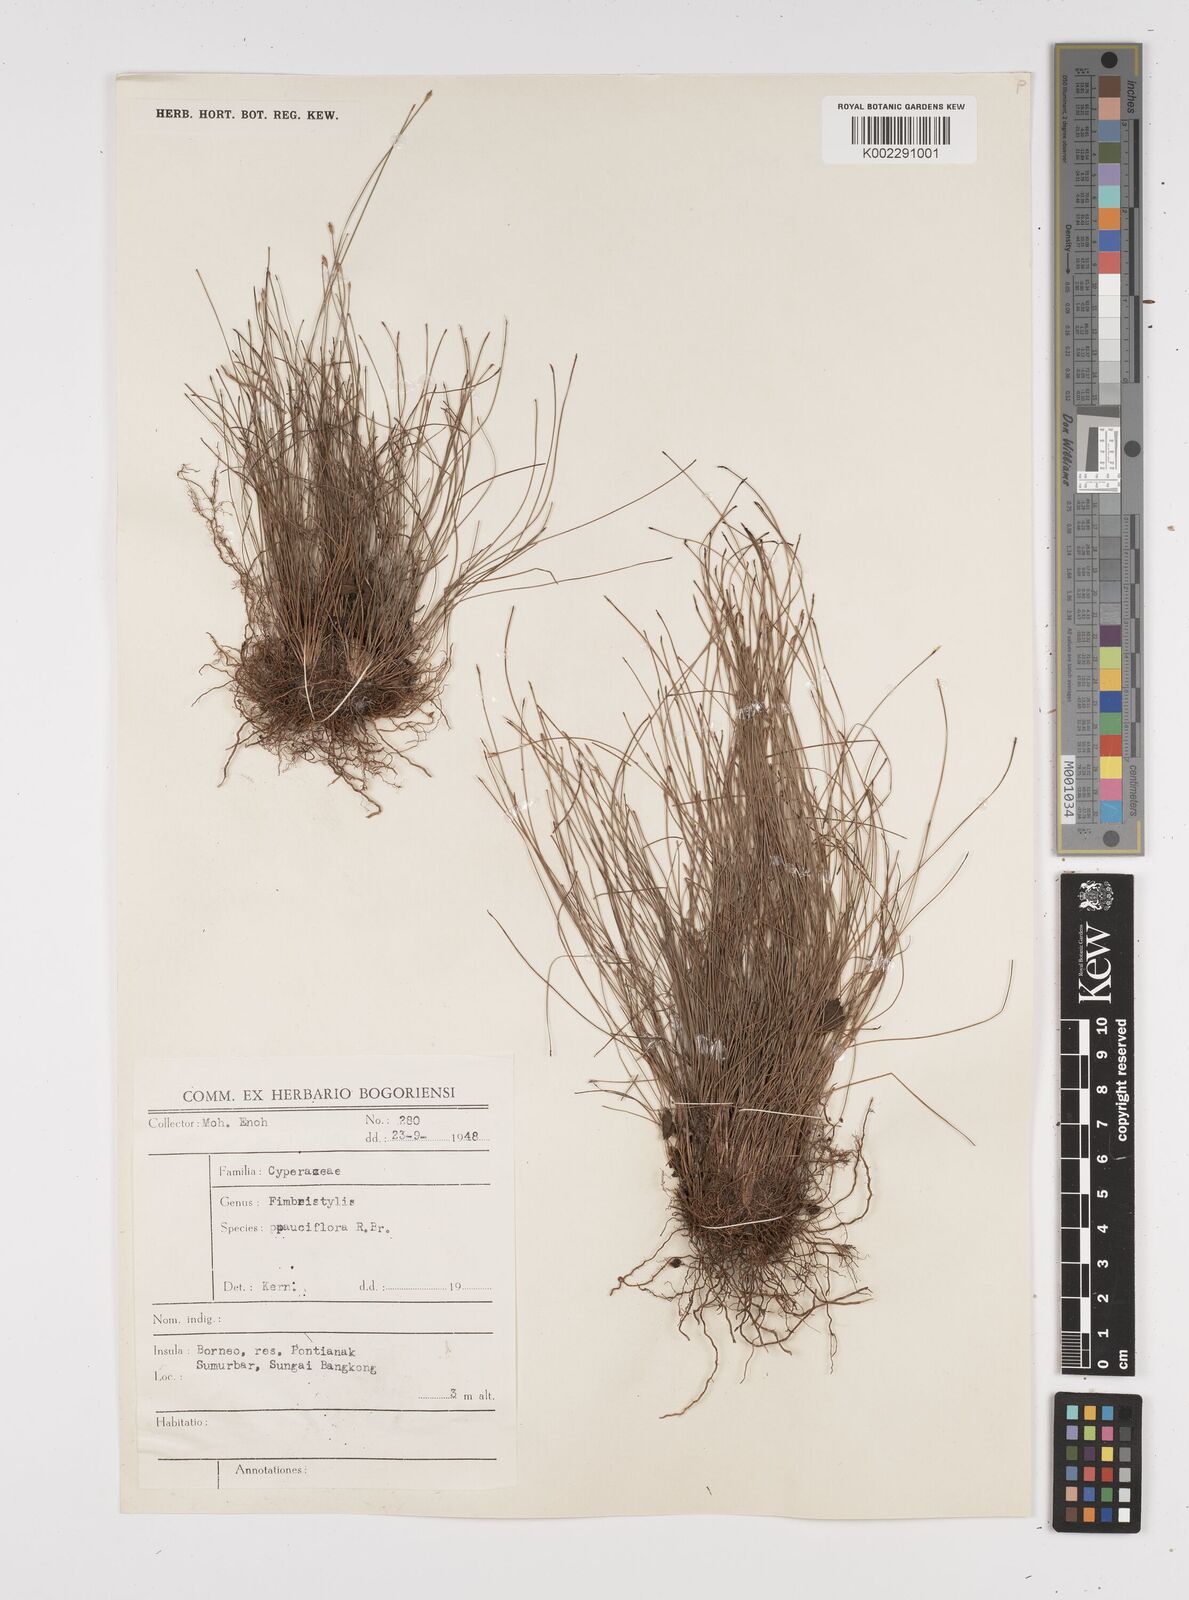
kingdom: Plantae
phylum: Tracheophyta
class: Liliopsida
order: Poales
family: Cyperaceae
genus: Fimbristylis
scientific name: Fimbristylis pauciflora
